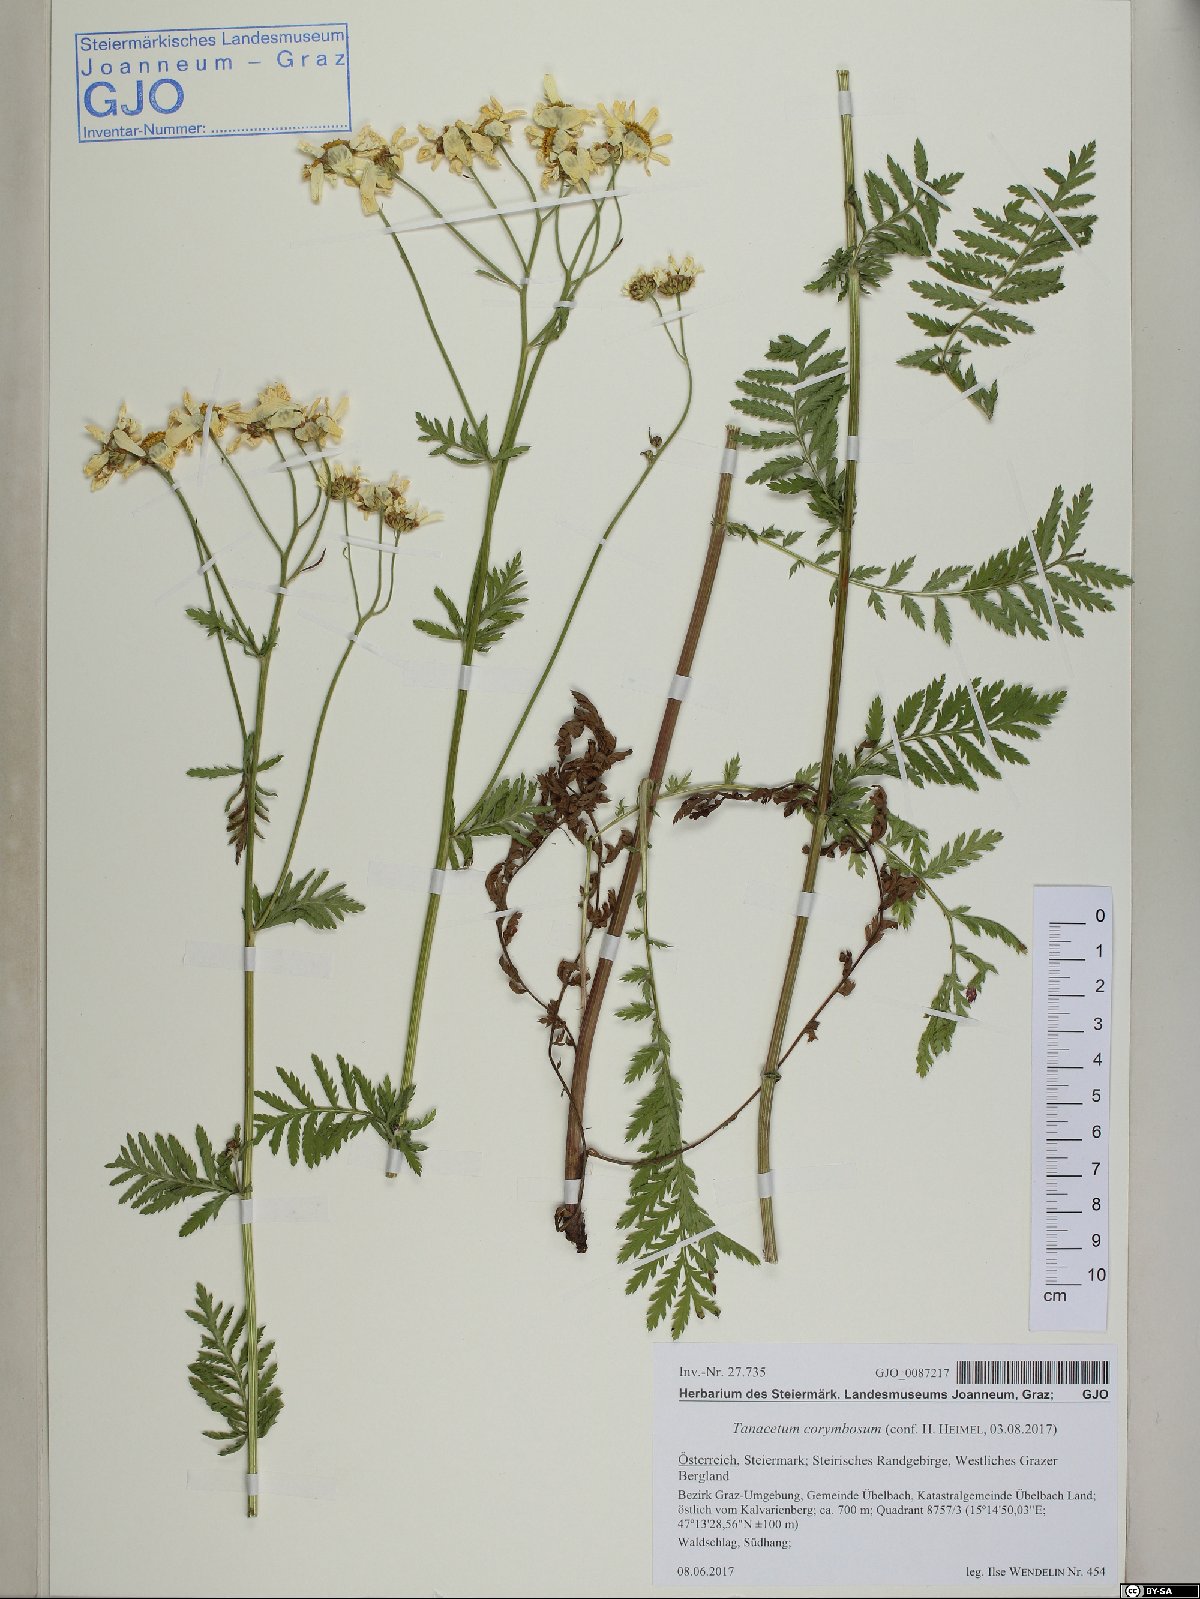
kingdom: Plantae
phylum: Tracheophyta
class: Magnoliopsida
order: Asterales
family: Asteraceae
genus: Tanacetum
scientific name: Tanacetum corymbosum
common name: Scentless feverfew
